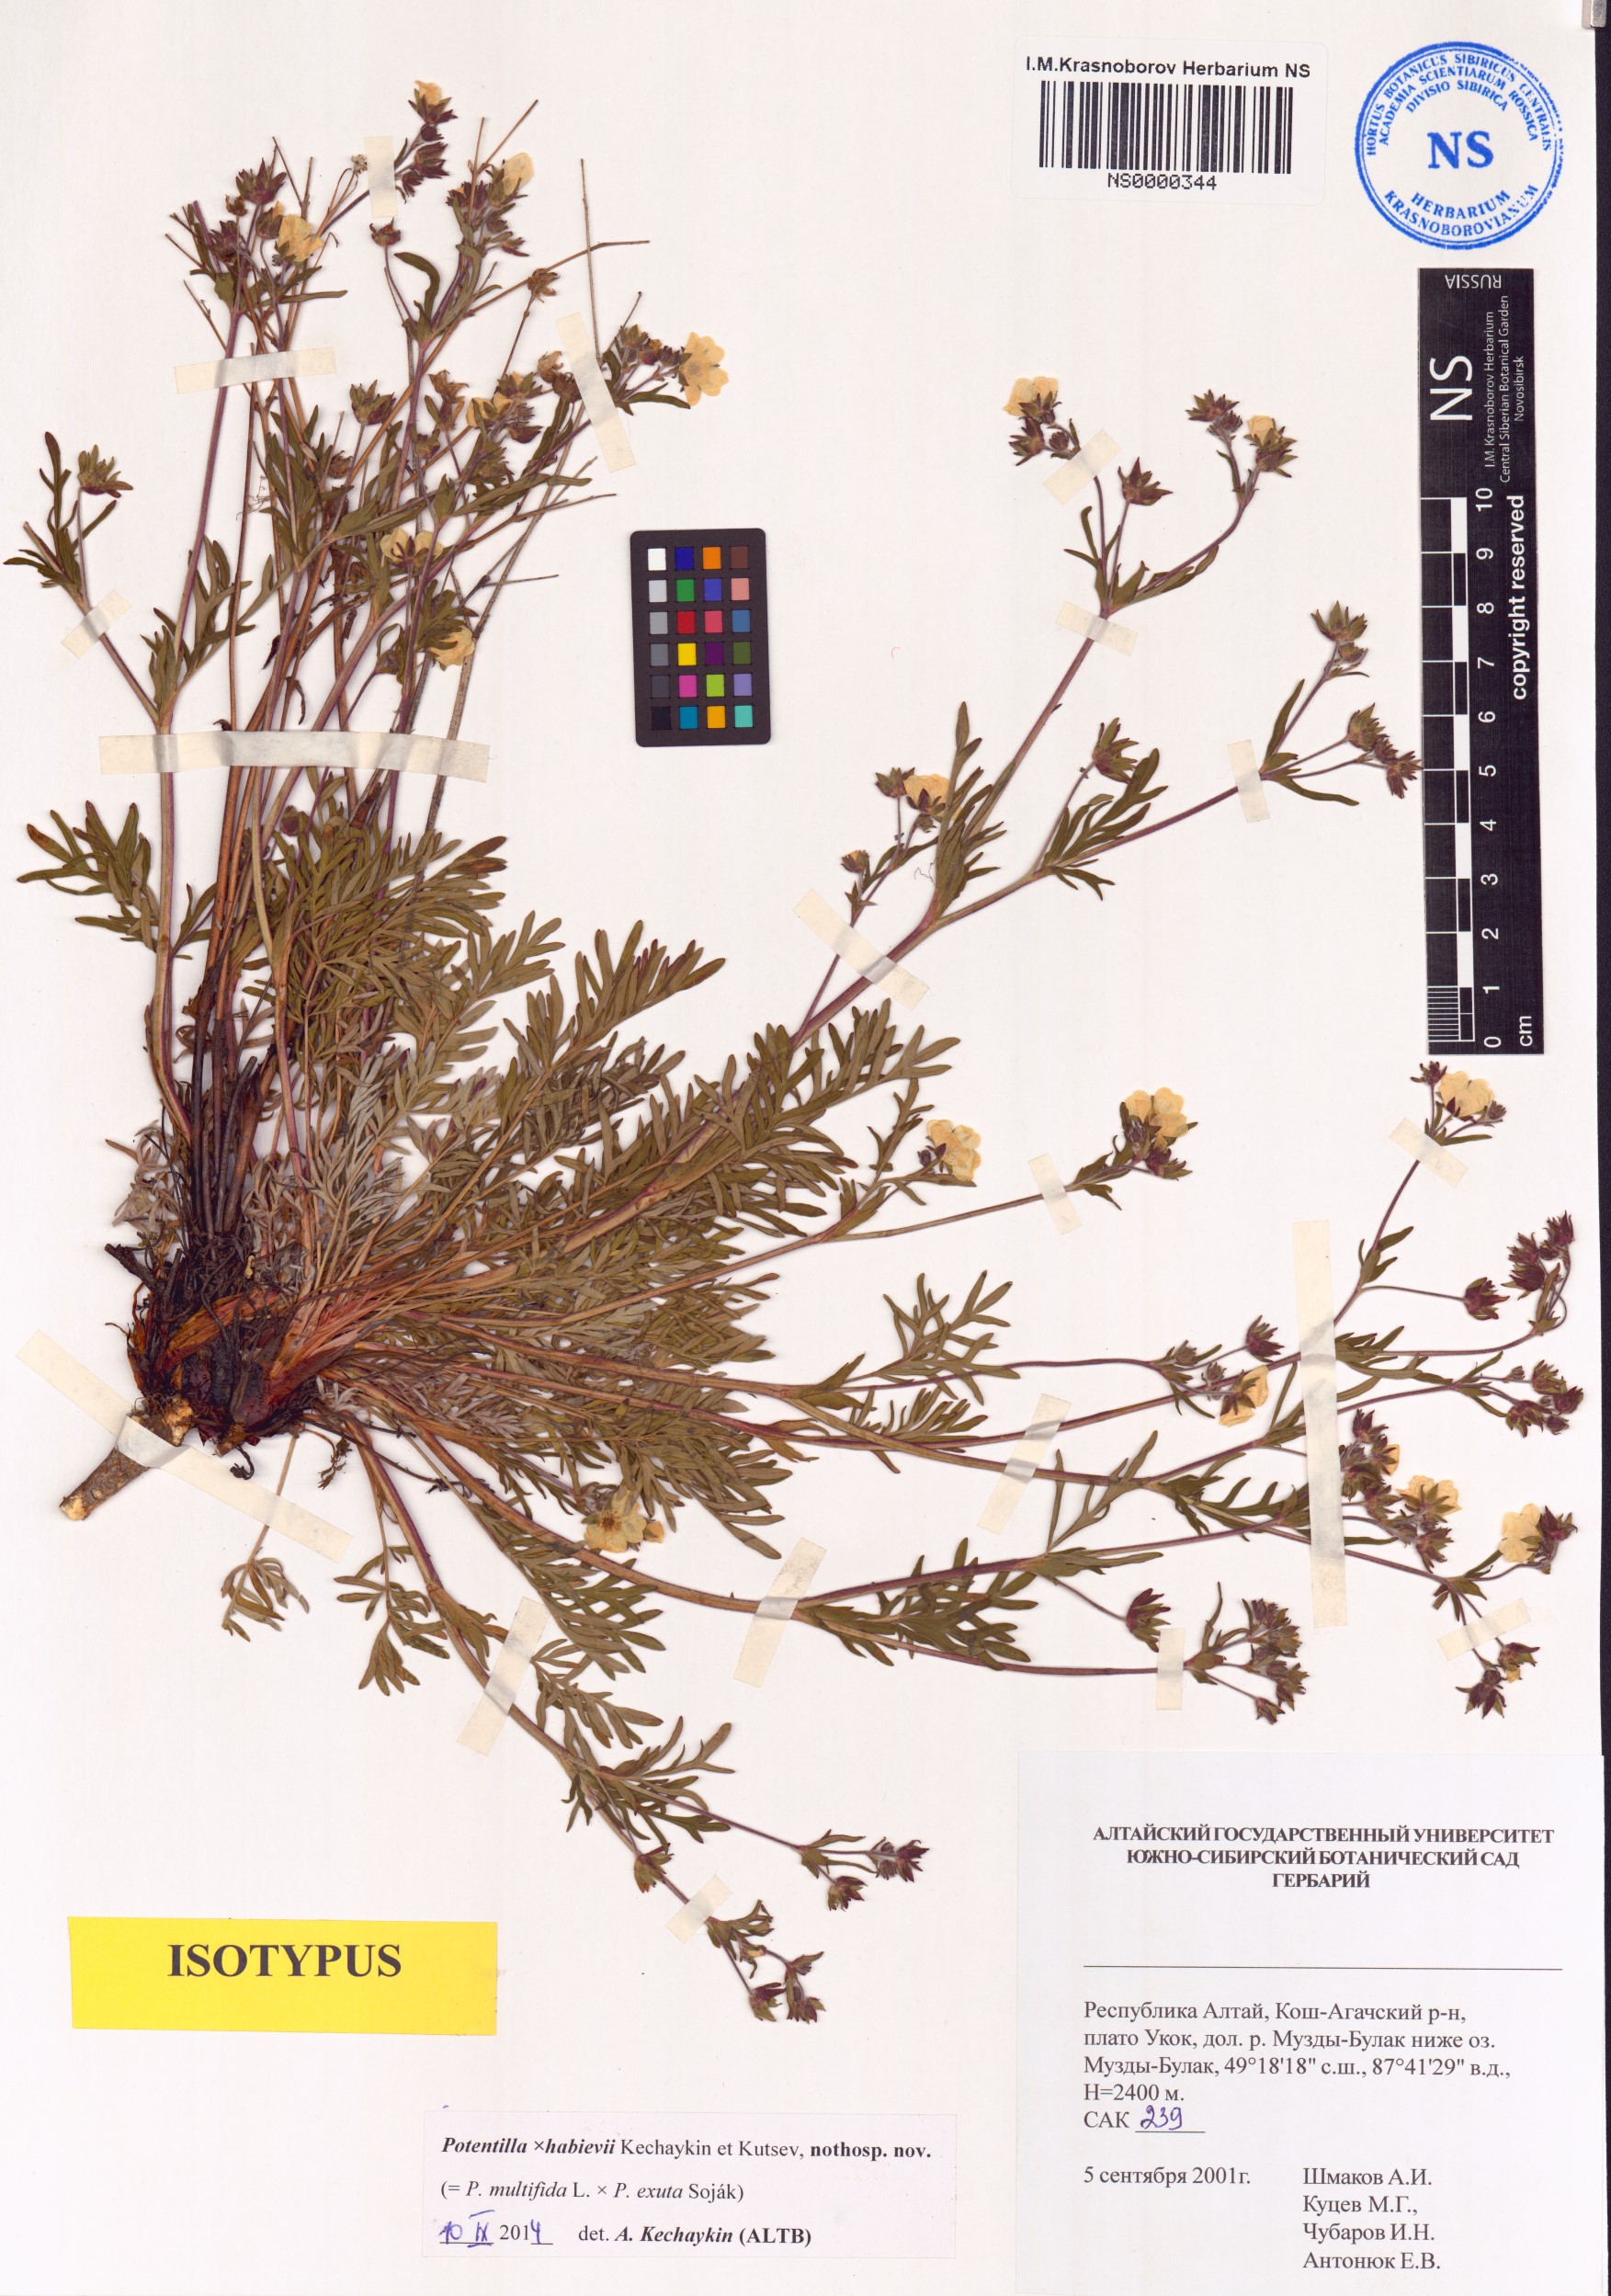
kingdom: Plantae
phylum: Tracheophyta
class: Magnoliopsida
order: Rosales
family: Rosaceae
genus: Potentilla
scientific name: Potentilla habievii
